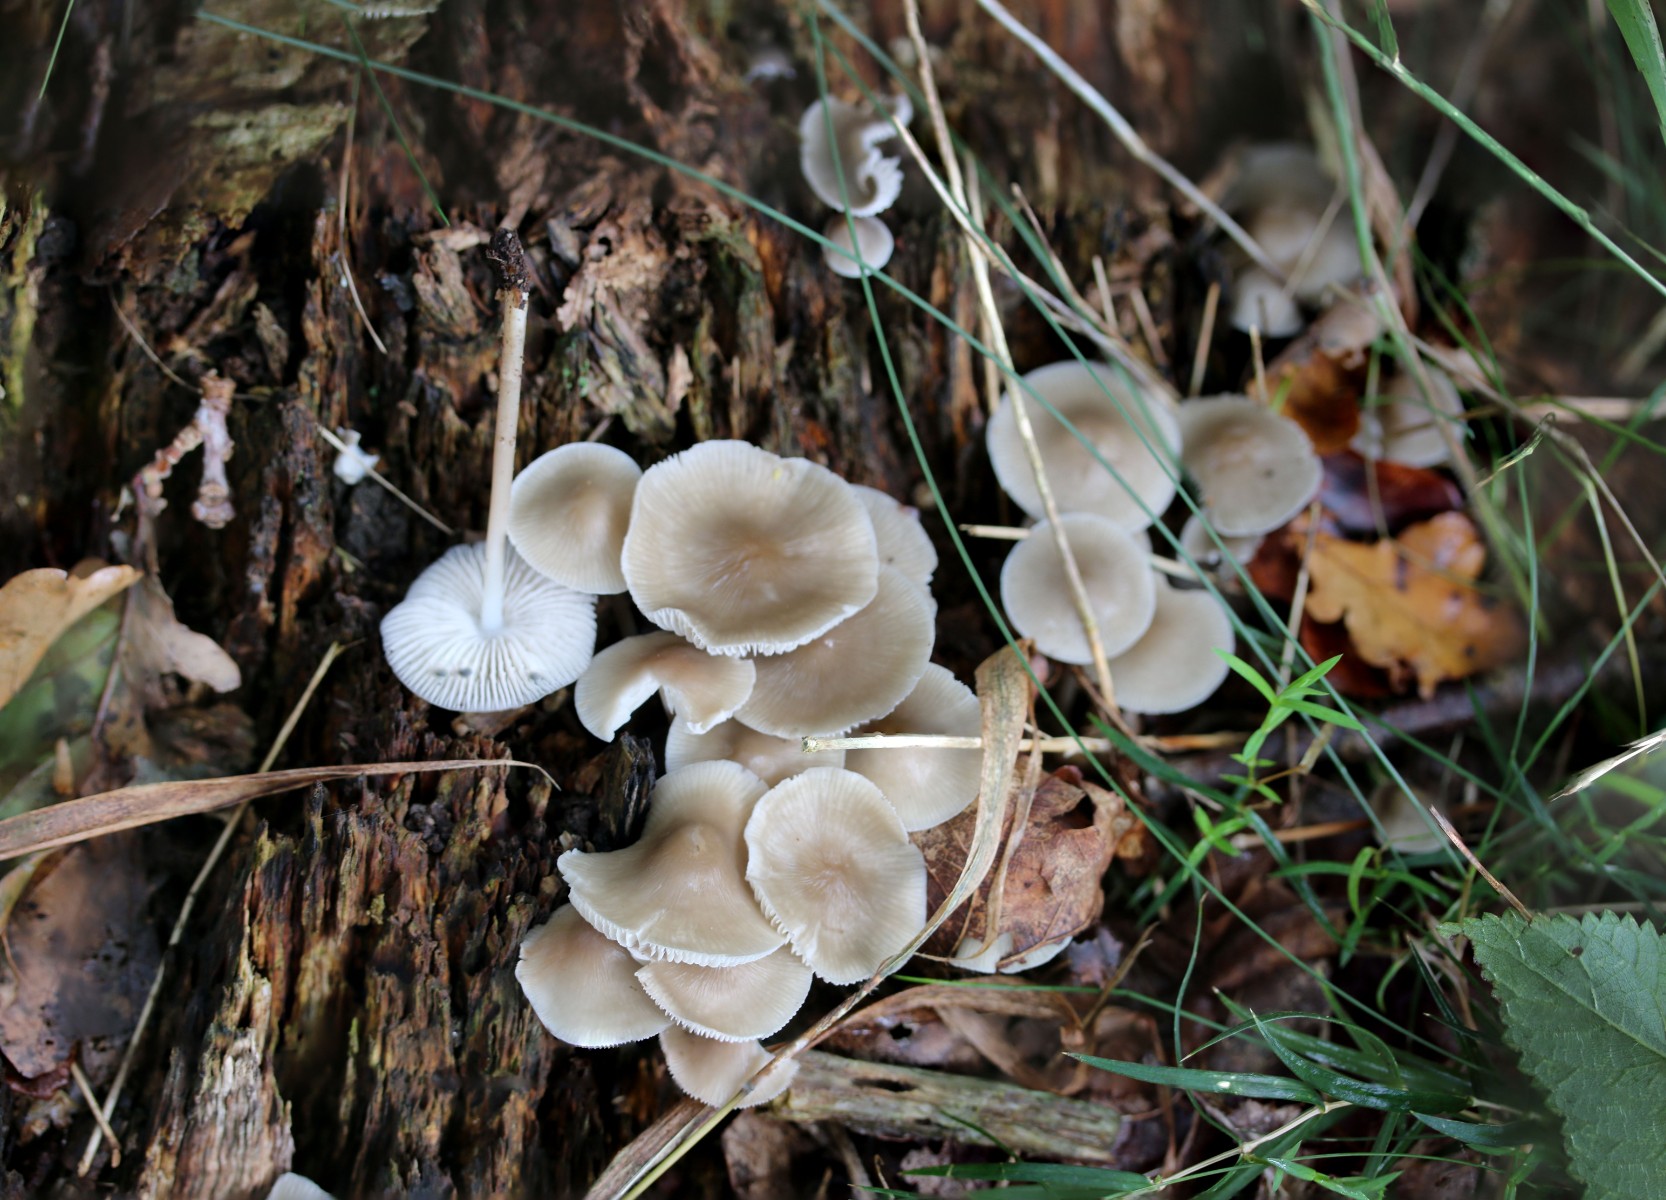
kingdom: Fungi
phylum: Basidiomycota
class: Agaricomycetes
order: Agaricales
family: Mycenaceae
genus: Mycena
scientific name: Mycena galericulata
